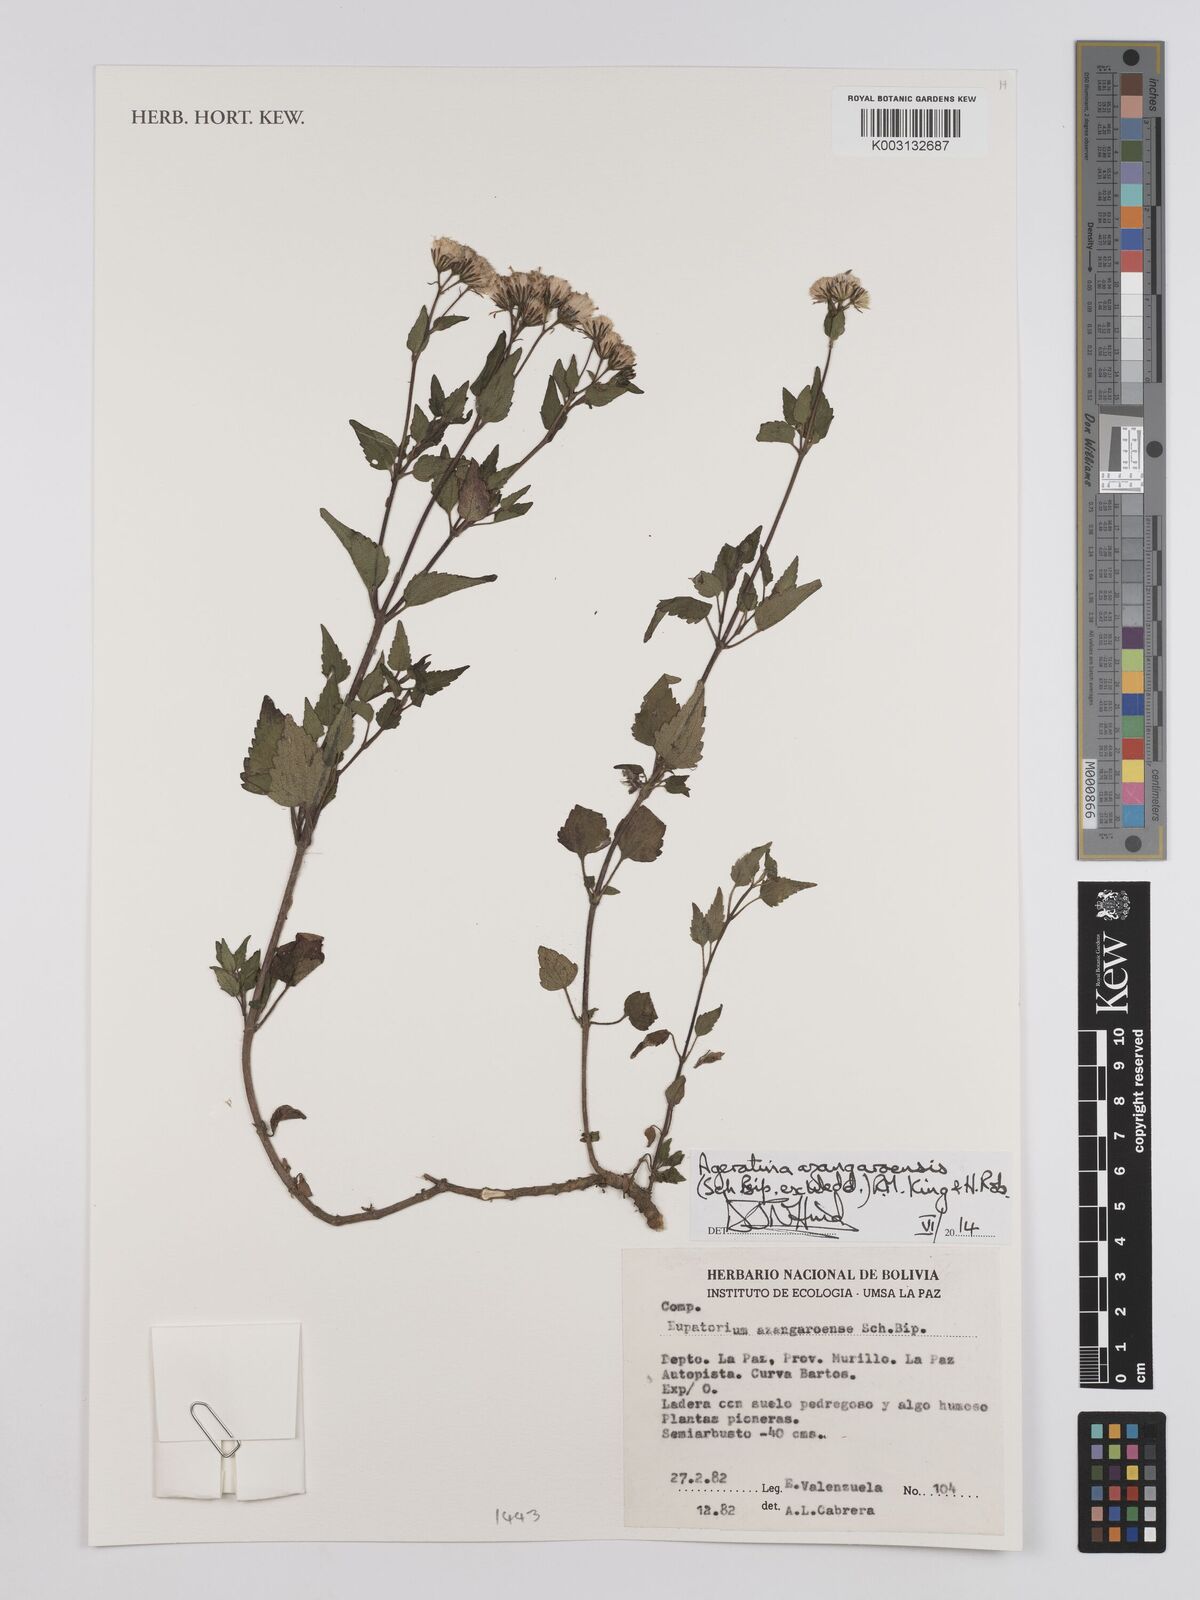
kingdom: Plantae
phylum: Tracheophyta
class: Magnoliopsida
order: Asterales
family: Asteraceae
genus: Ageratina
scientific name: Ageratina glechonophylla
